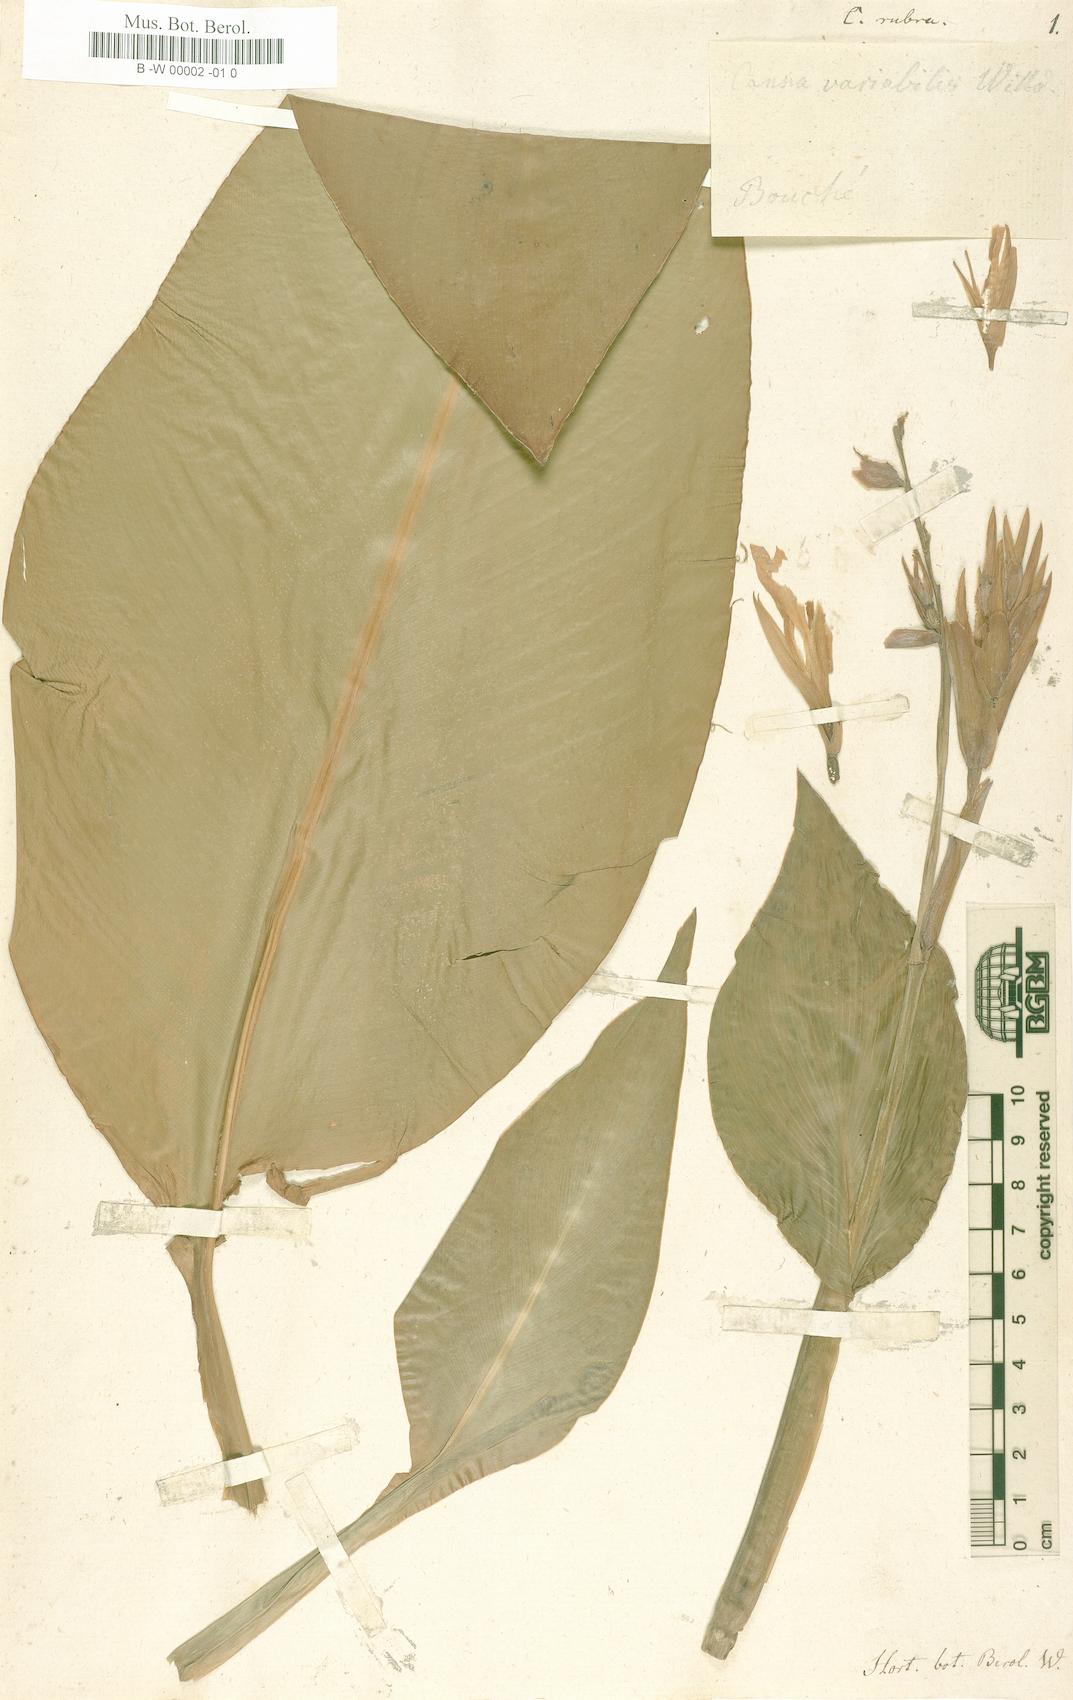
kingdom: Plantae
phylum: Tracheophyta
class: Liliopsida
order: Zingiberales
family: Cannaceae
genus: Canna
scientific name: Canna indica
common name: Indian shot
